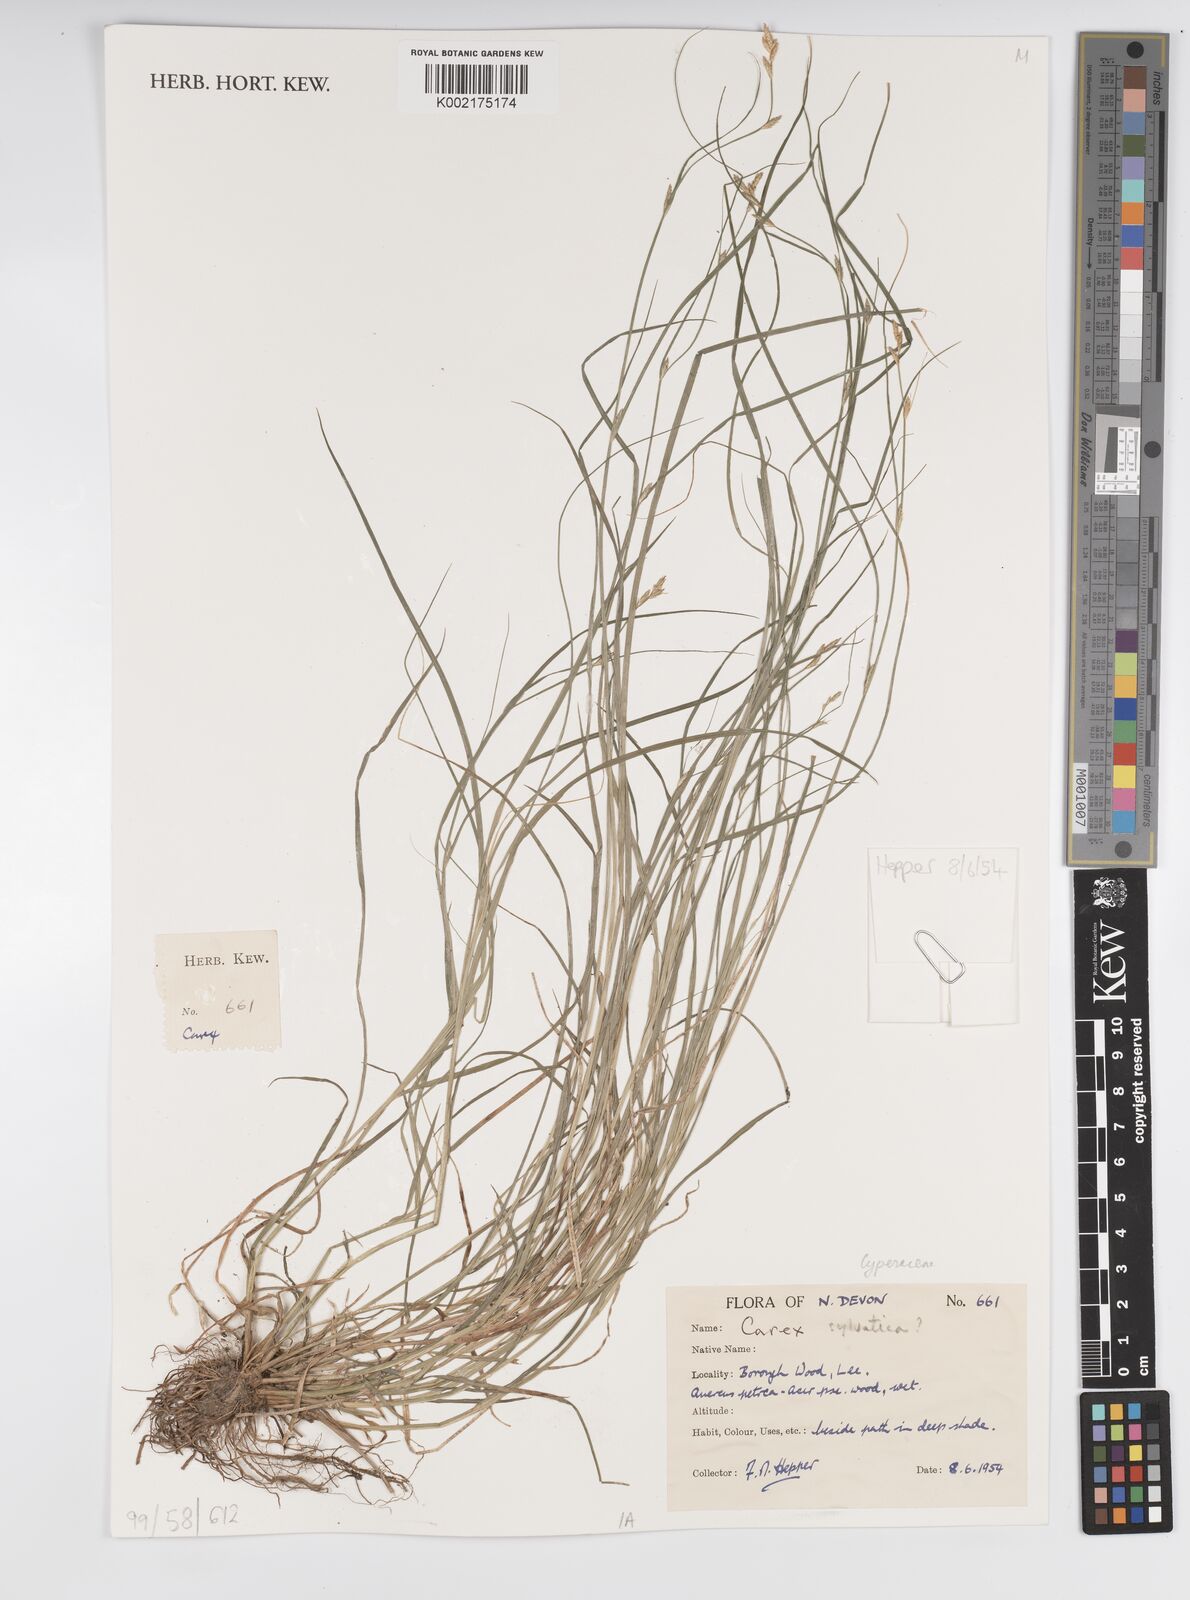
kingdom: Plantae
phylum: Tracheophyta
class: Liliopsida
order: Poales
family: Cyperaceae
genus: Carex
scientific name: Carex sylvatica
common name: Wood-sedge
